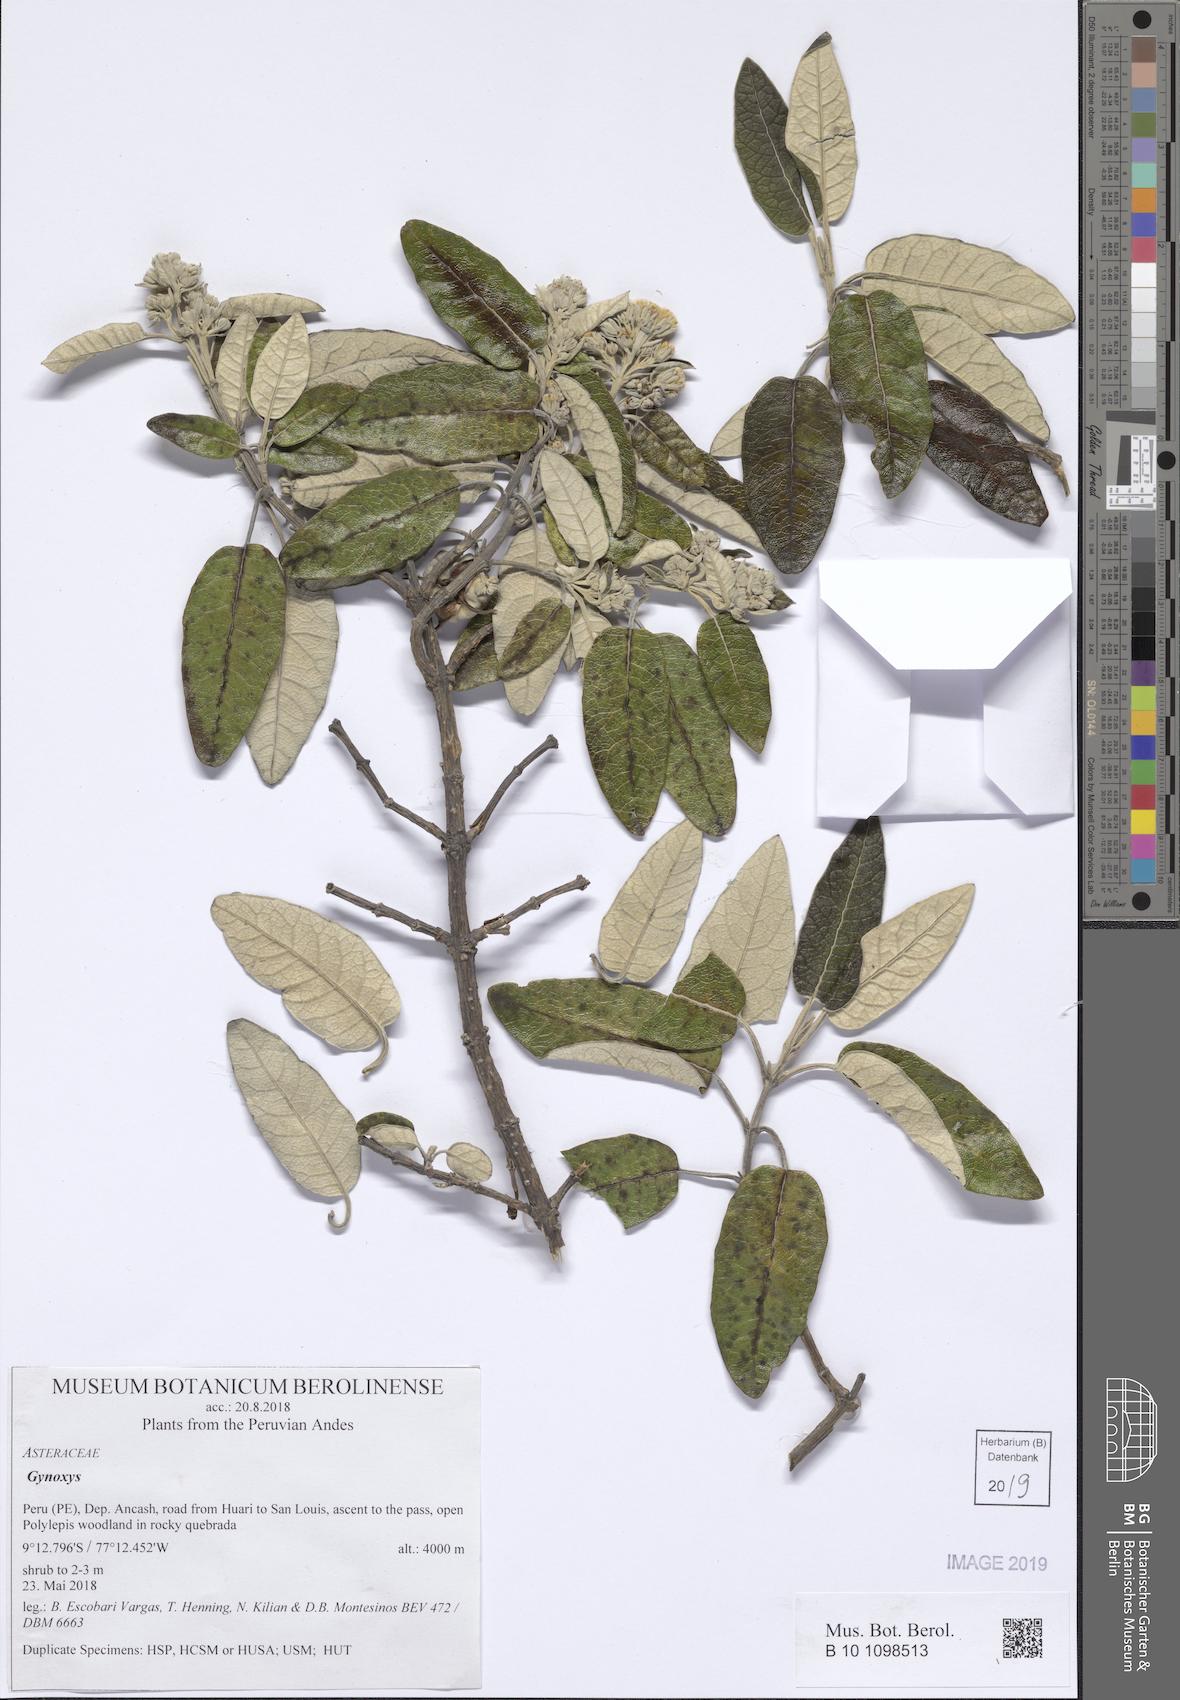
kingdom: Plantae
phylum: Tracheophyta
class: Magnoliopsida
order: Asterales
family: Asteraceae
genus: Gynoxys
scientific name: Gynoxys
